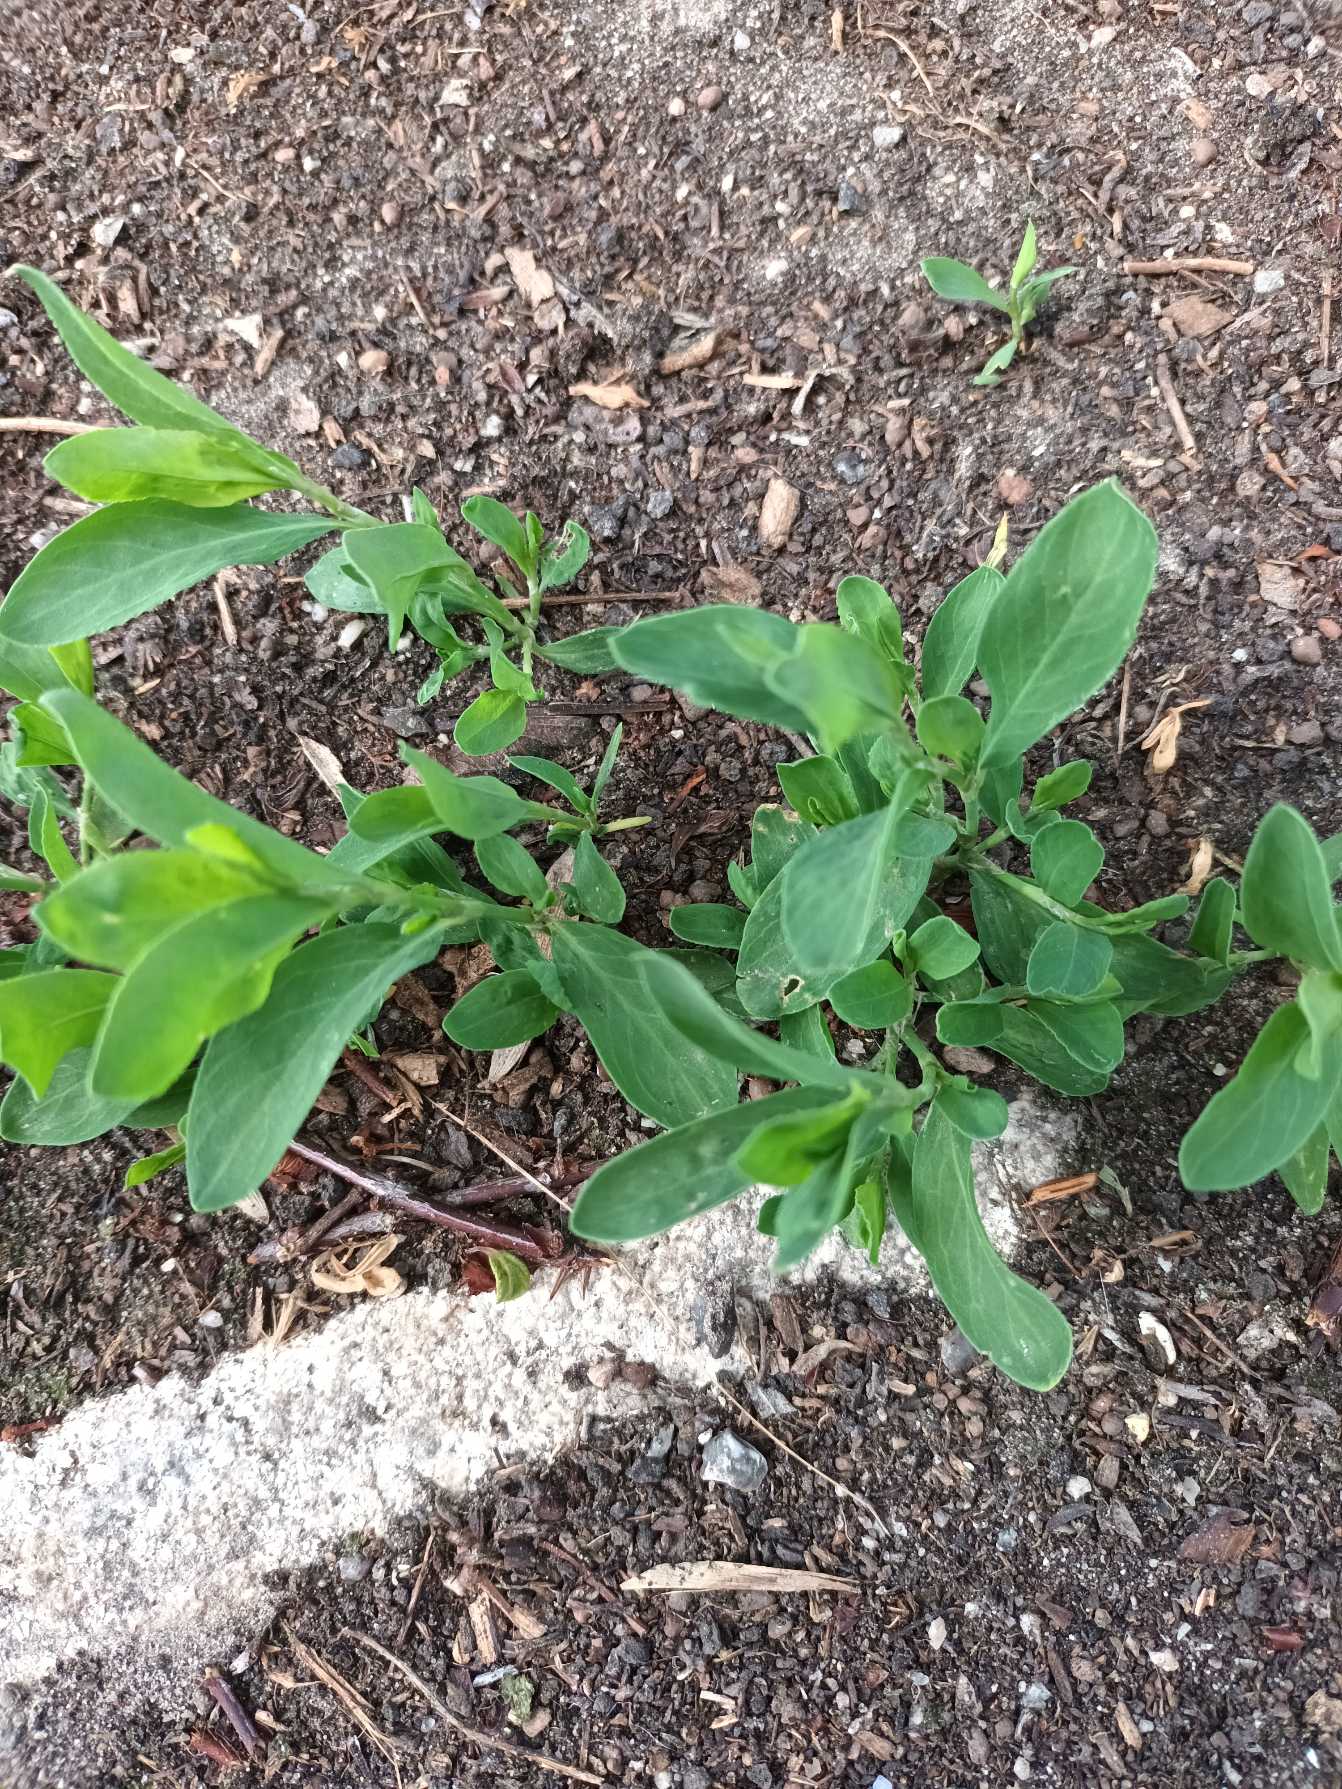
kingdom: Plantae
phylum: Tracheophyta
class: Magnoliopsida
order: Caryophyllales
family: Polygonaceae
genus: Polygonum
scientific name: Polygonum aviculare
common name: Vej-pileurt (underart)
